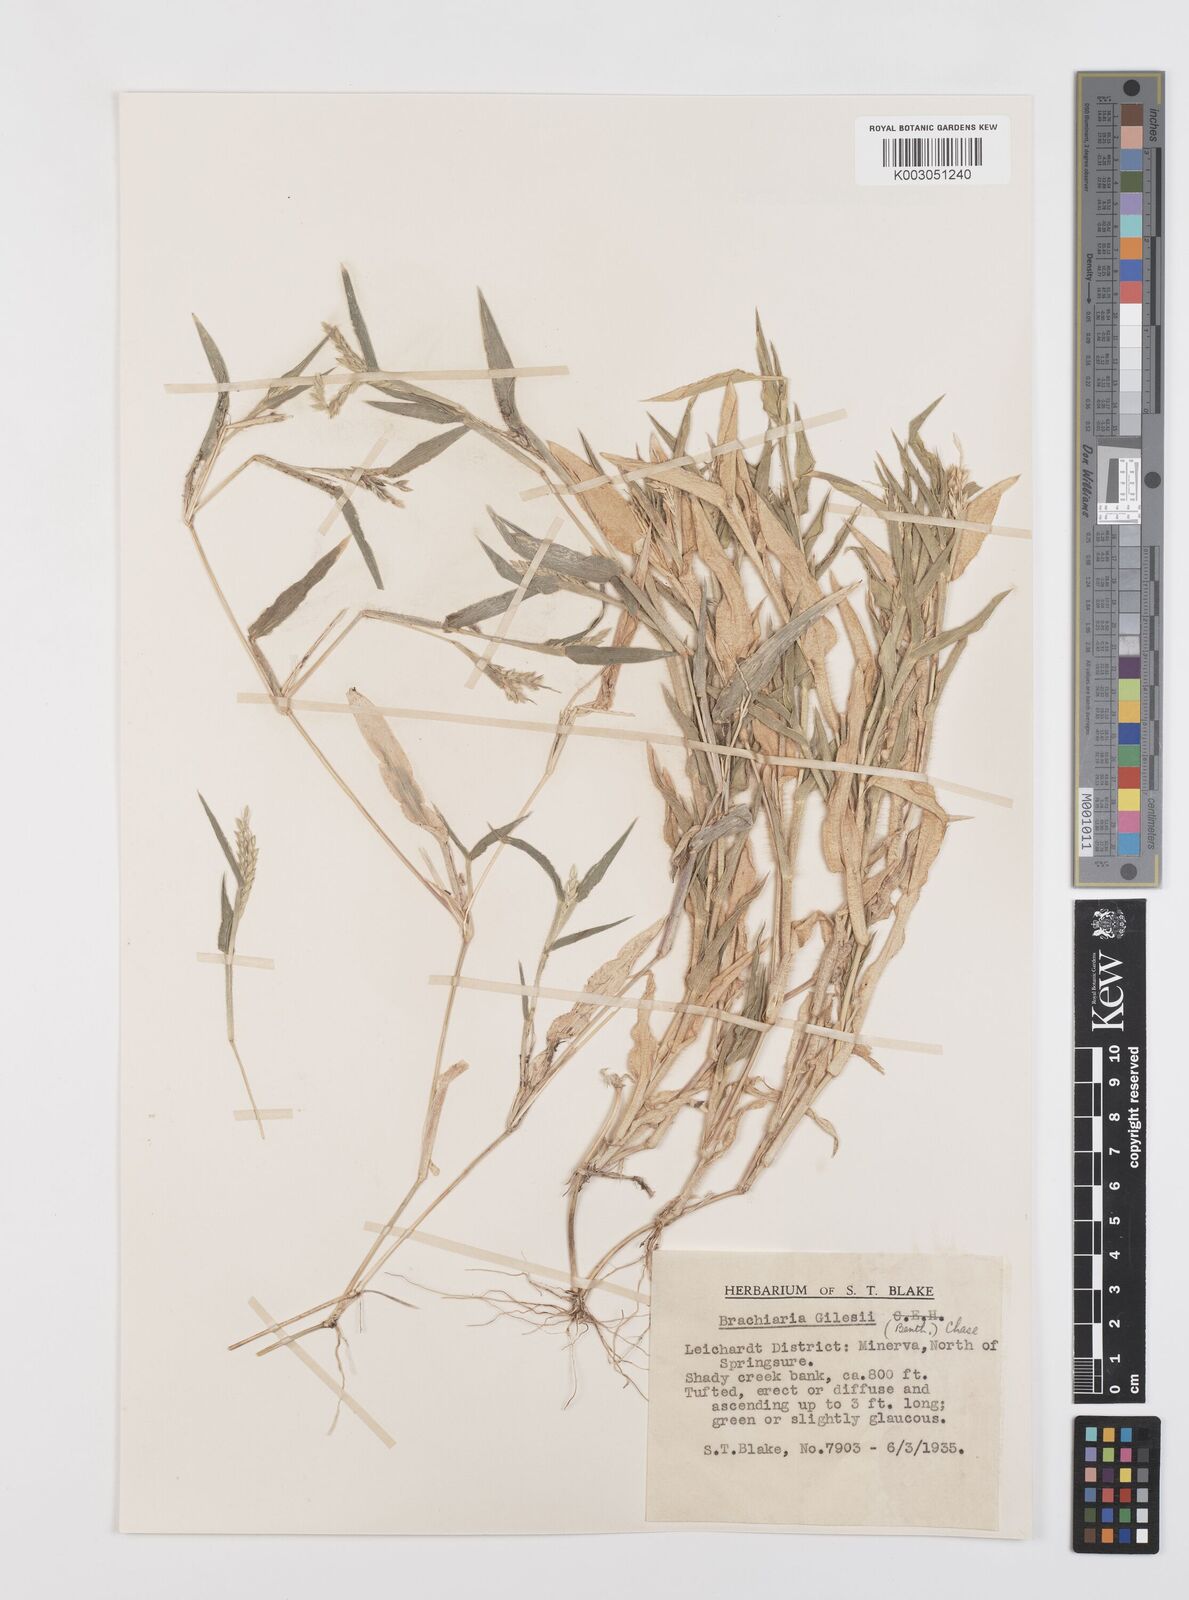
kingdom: Plantae
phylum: Tracheophyta
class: Liliopsida
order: Poales
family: Poaceae
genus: Urochloa
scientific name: Urochloa gilesii
